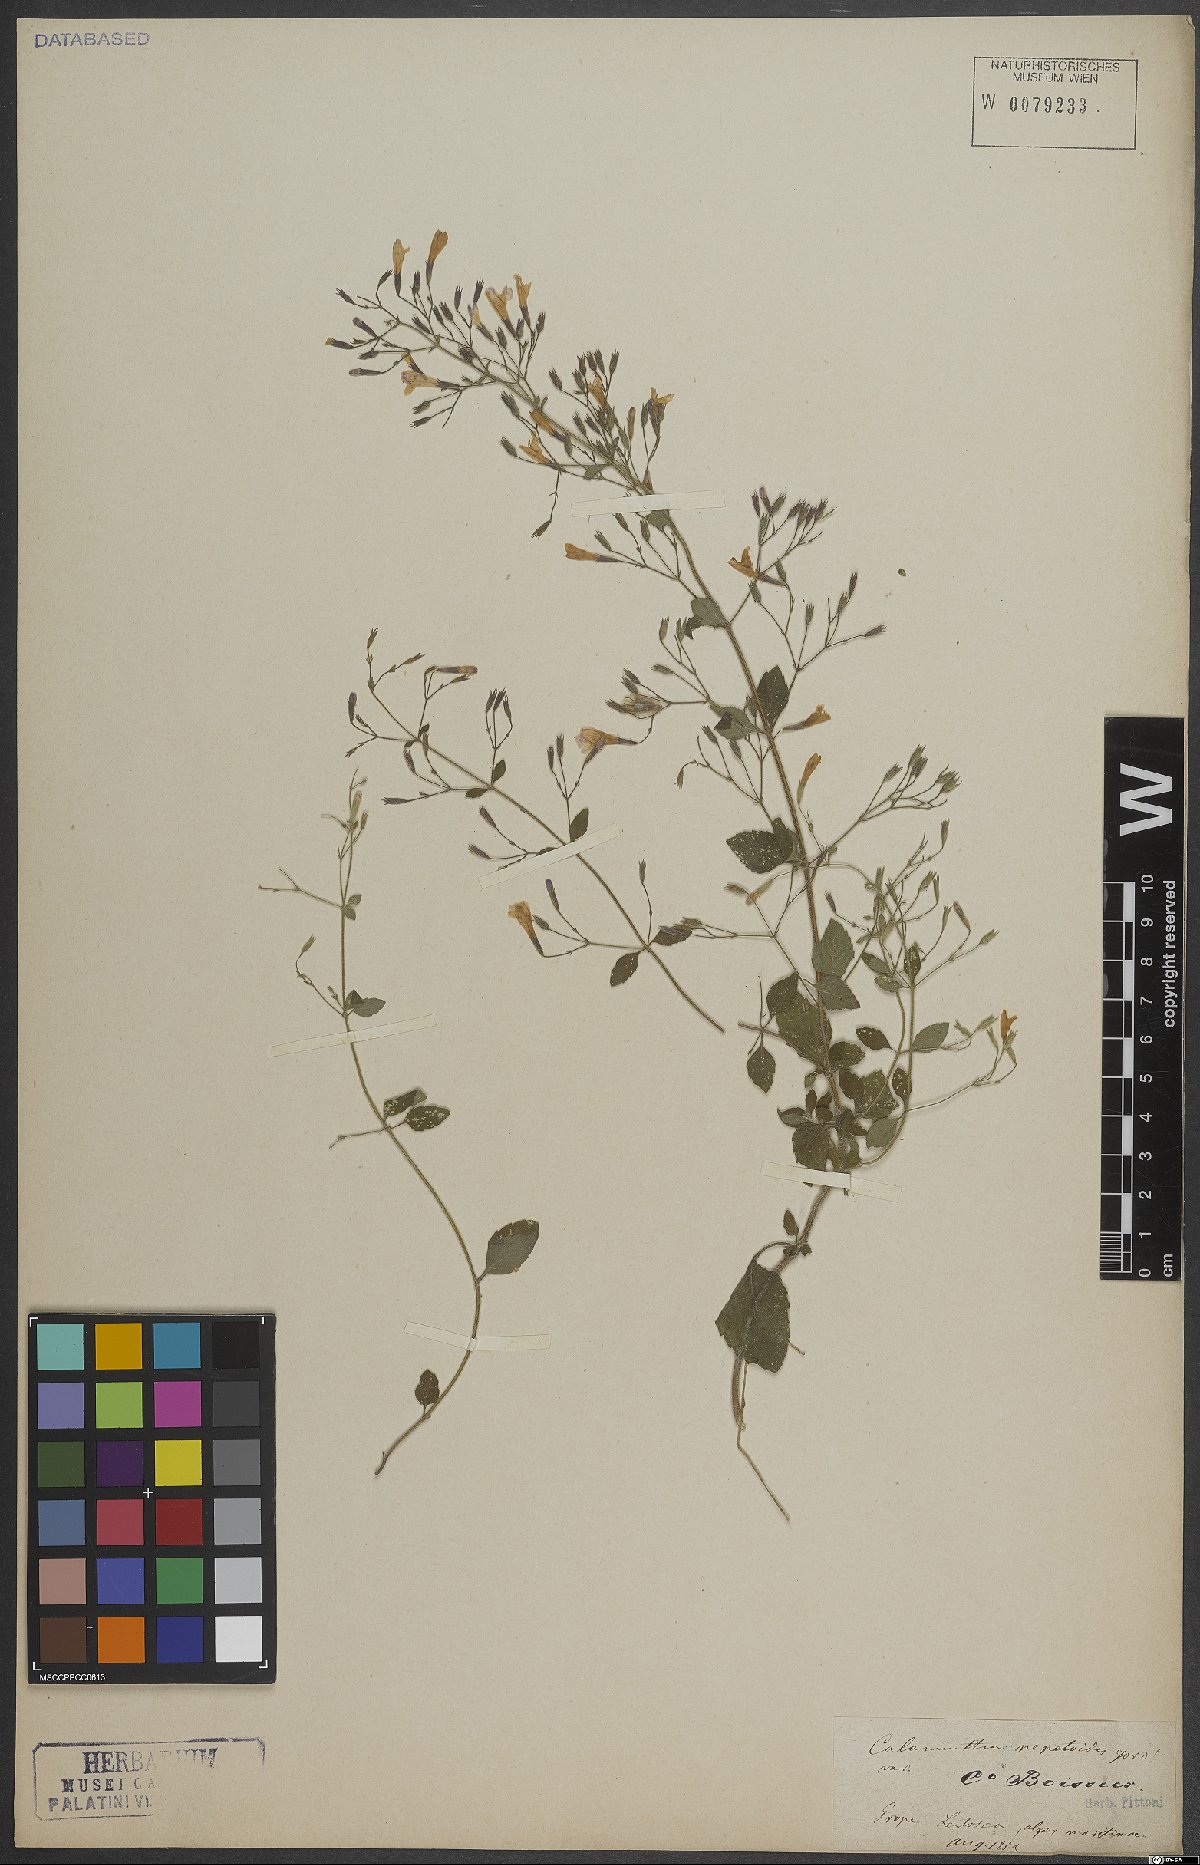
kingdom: Plantae
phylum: Tracheophyta
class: Magnoliopsida
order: Lamiales
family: Lamiaceae
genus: Clinopodium
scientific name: Clinopodium nepeta
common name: Lesser calamint
